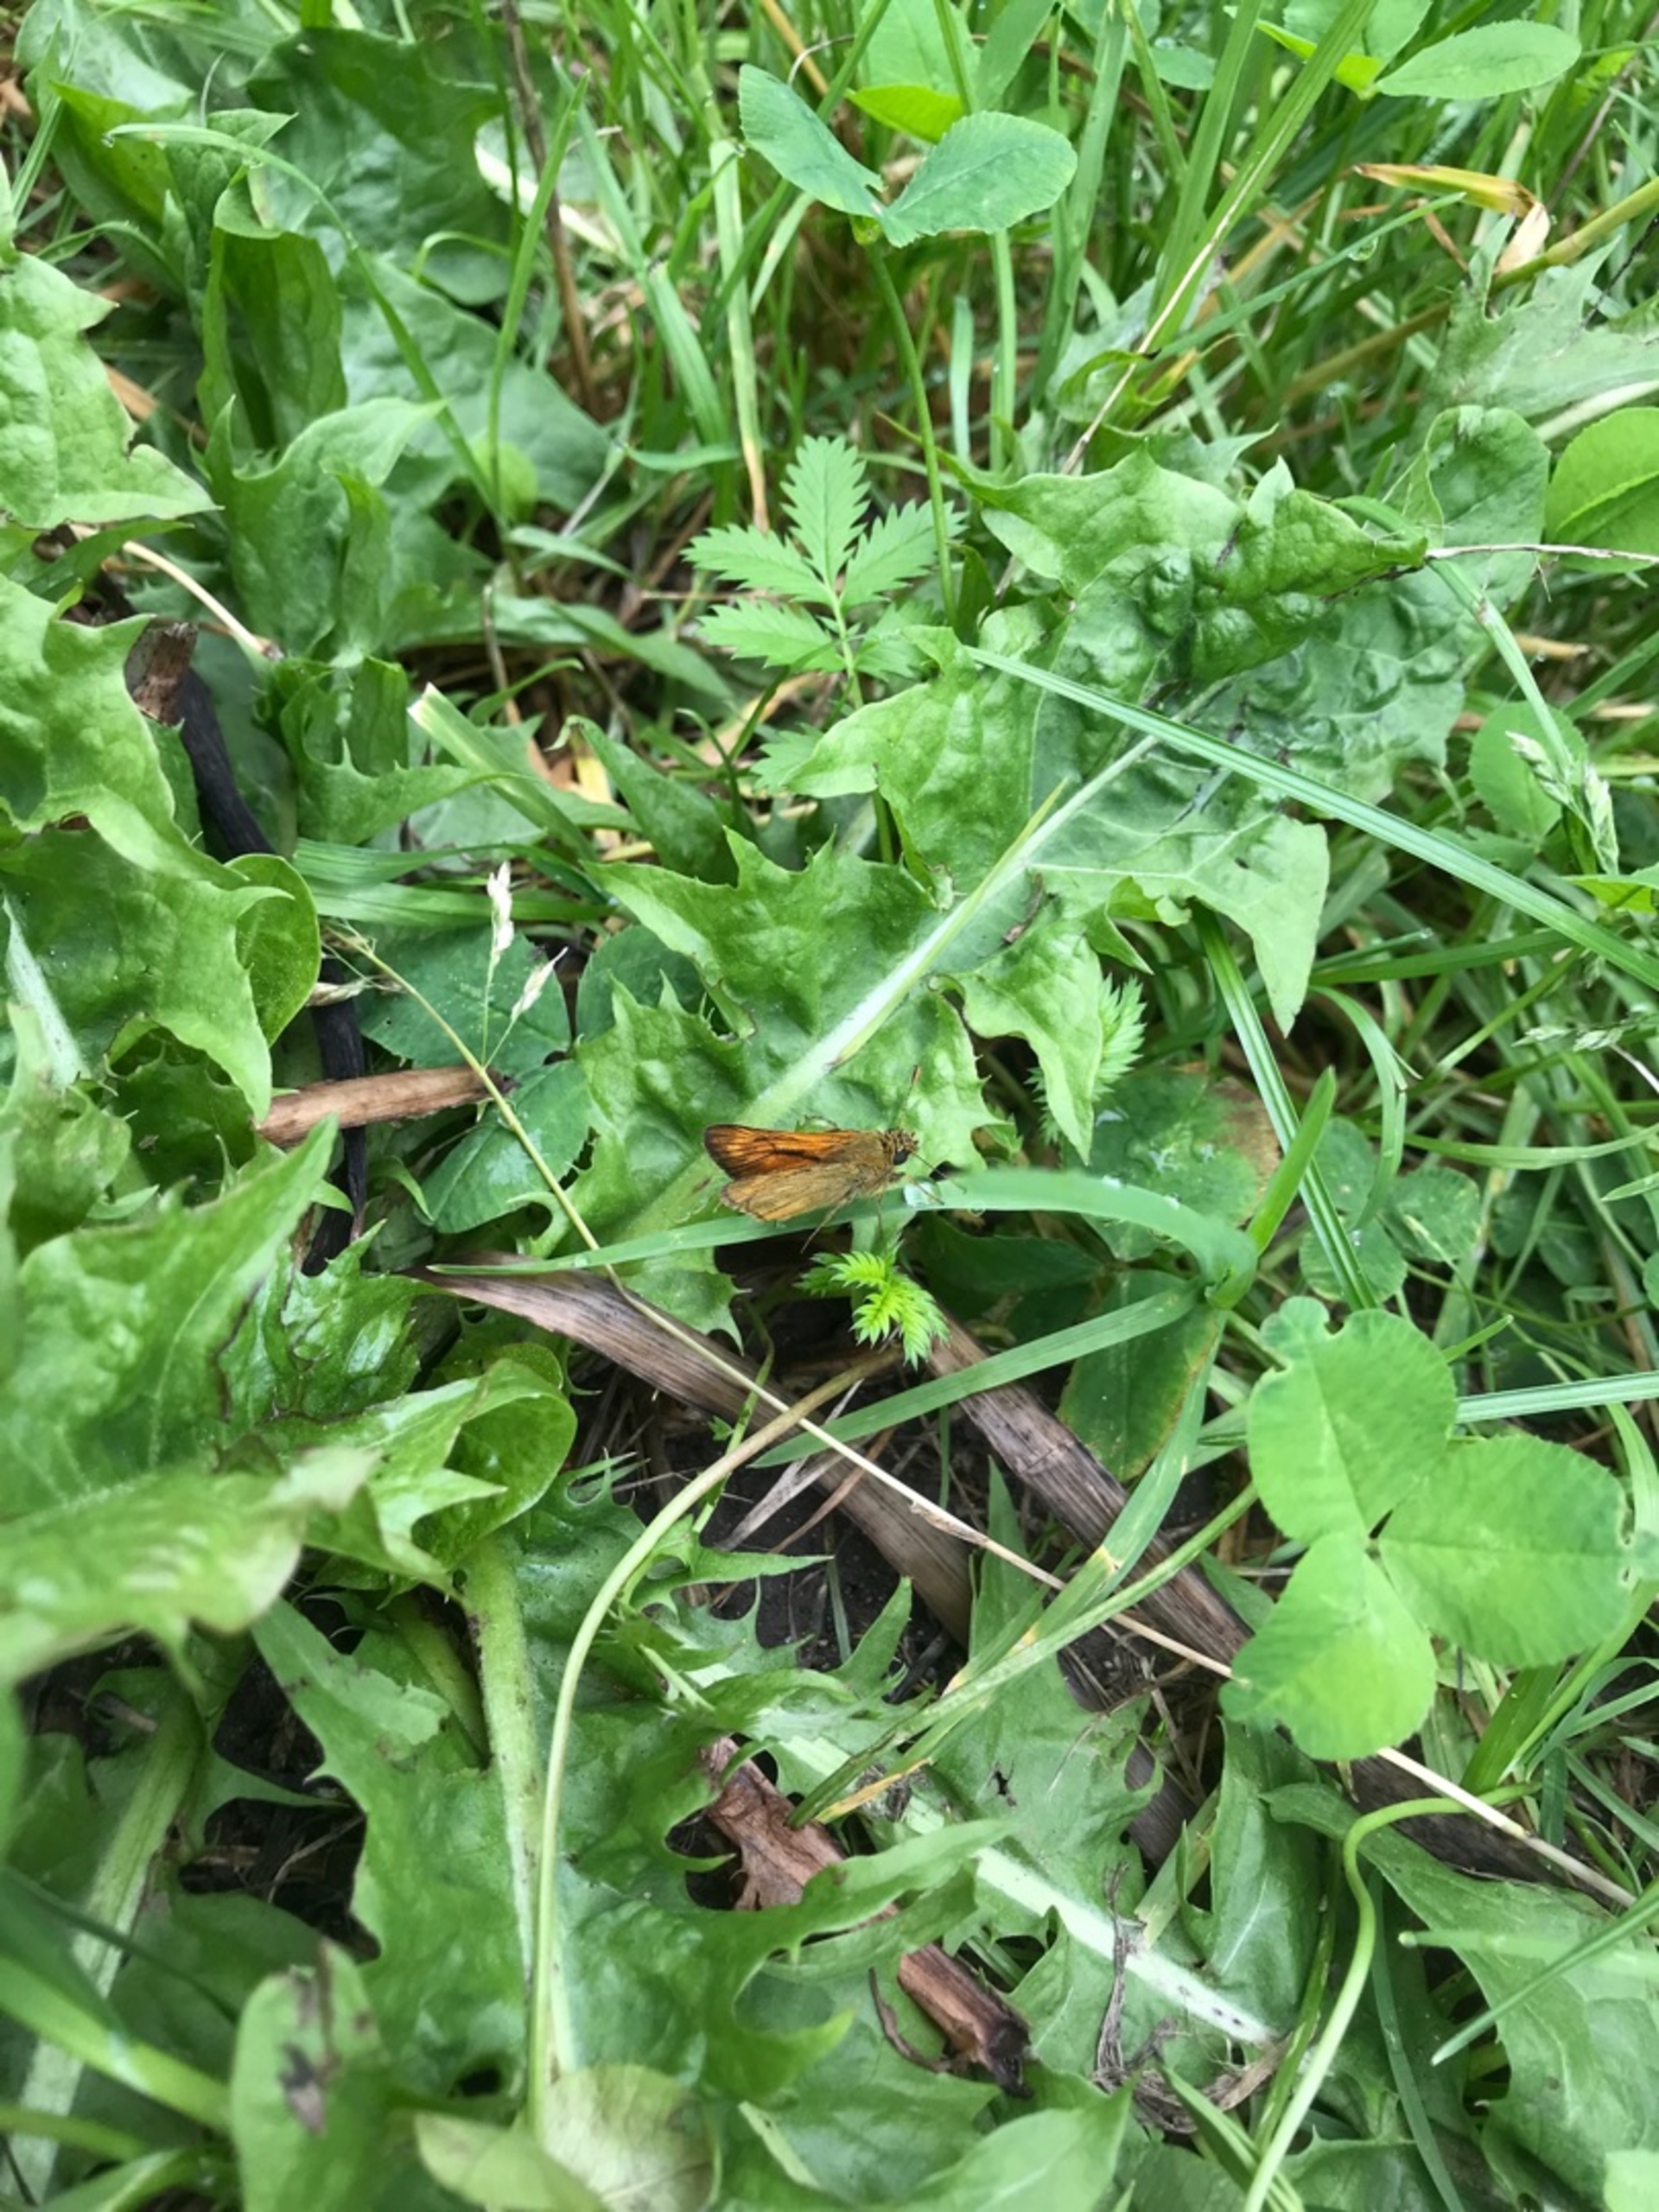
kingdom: Animalia
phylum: Arthropoda
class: Insecta
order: Lepidoptera
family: Hesperiidae
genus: Ochlodes
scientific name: Ochlodes venata
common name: Stor bredpande
